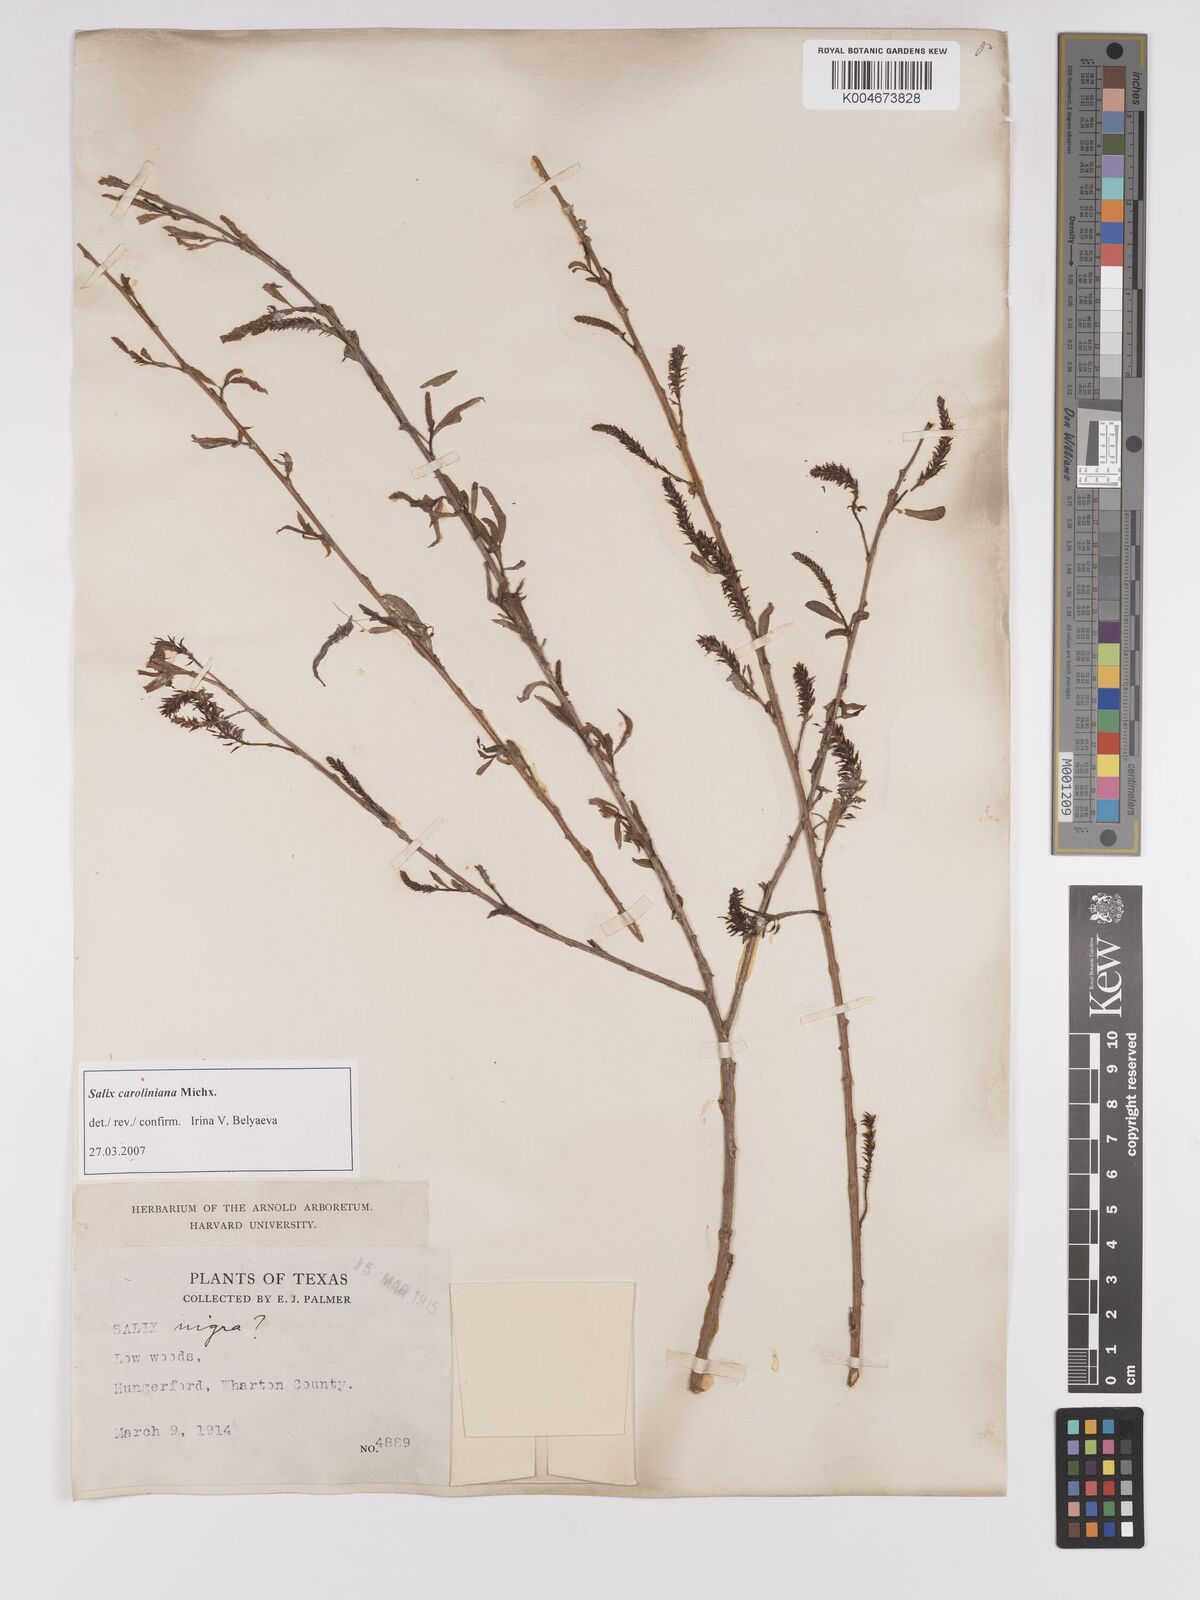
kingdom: Plantae
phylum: Tracheophyta
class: Magnoliopsida
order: Malpighiales
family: Salicaceae
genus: Salix
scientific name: Salix caroliniana
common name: Carolina willow
